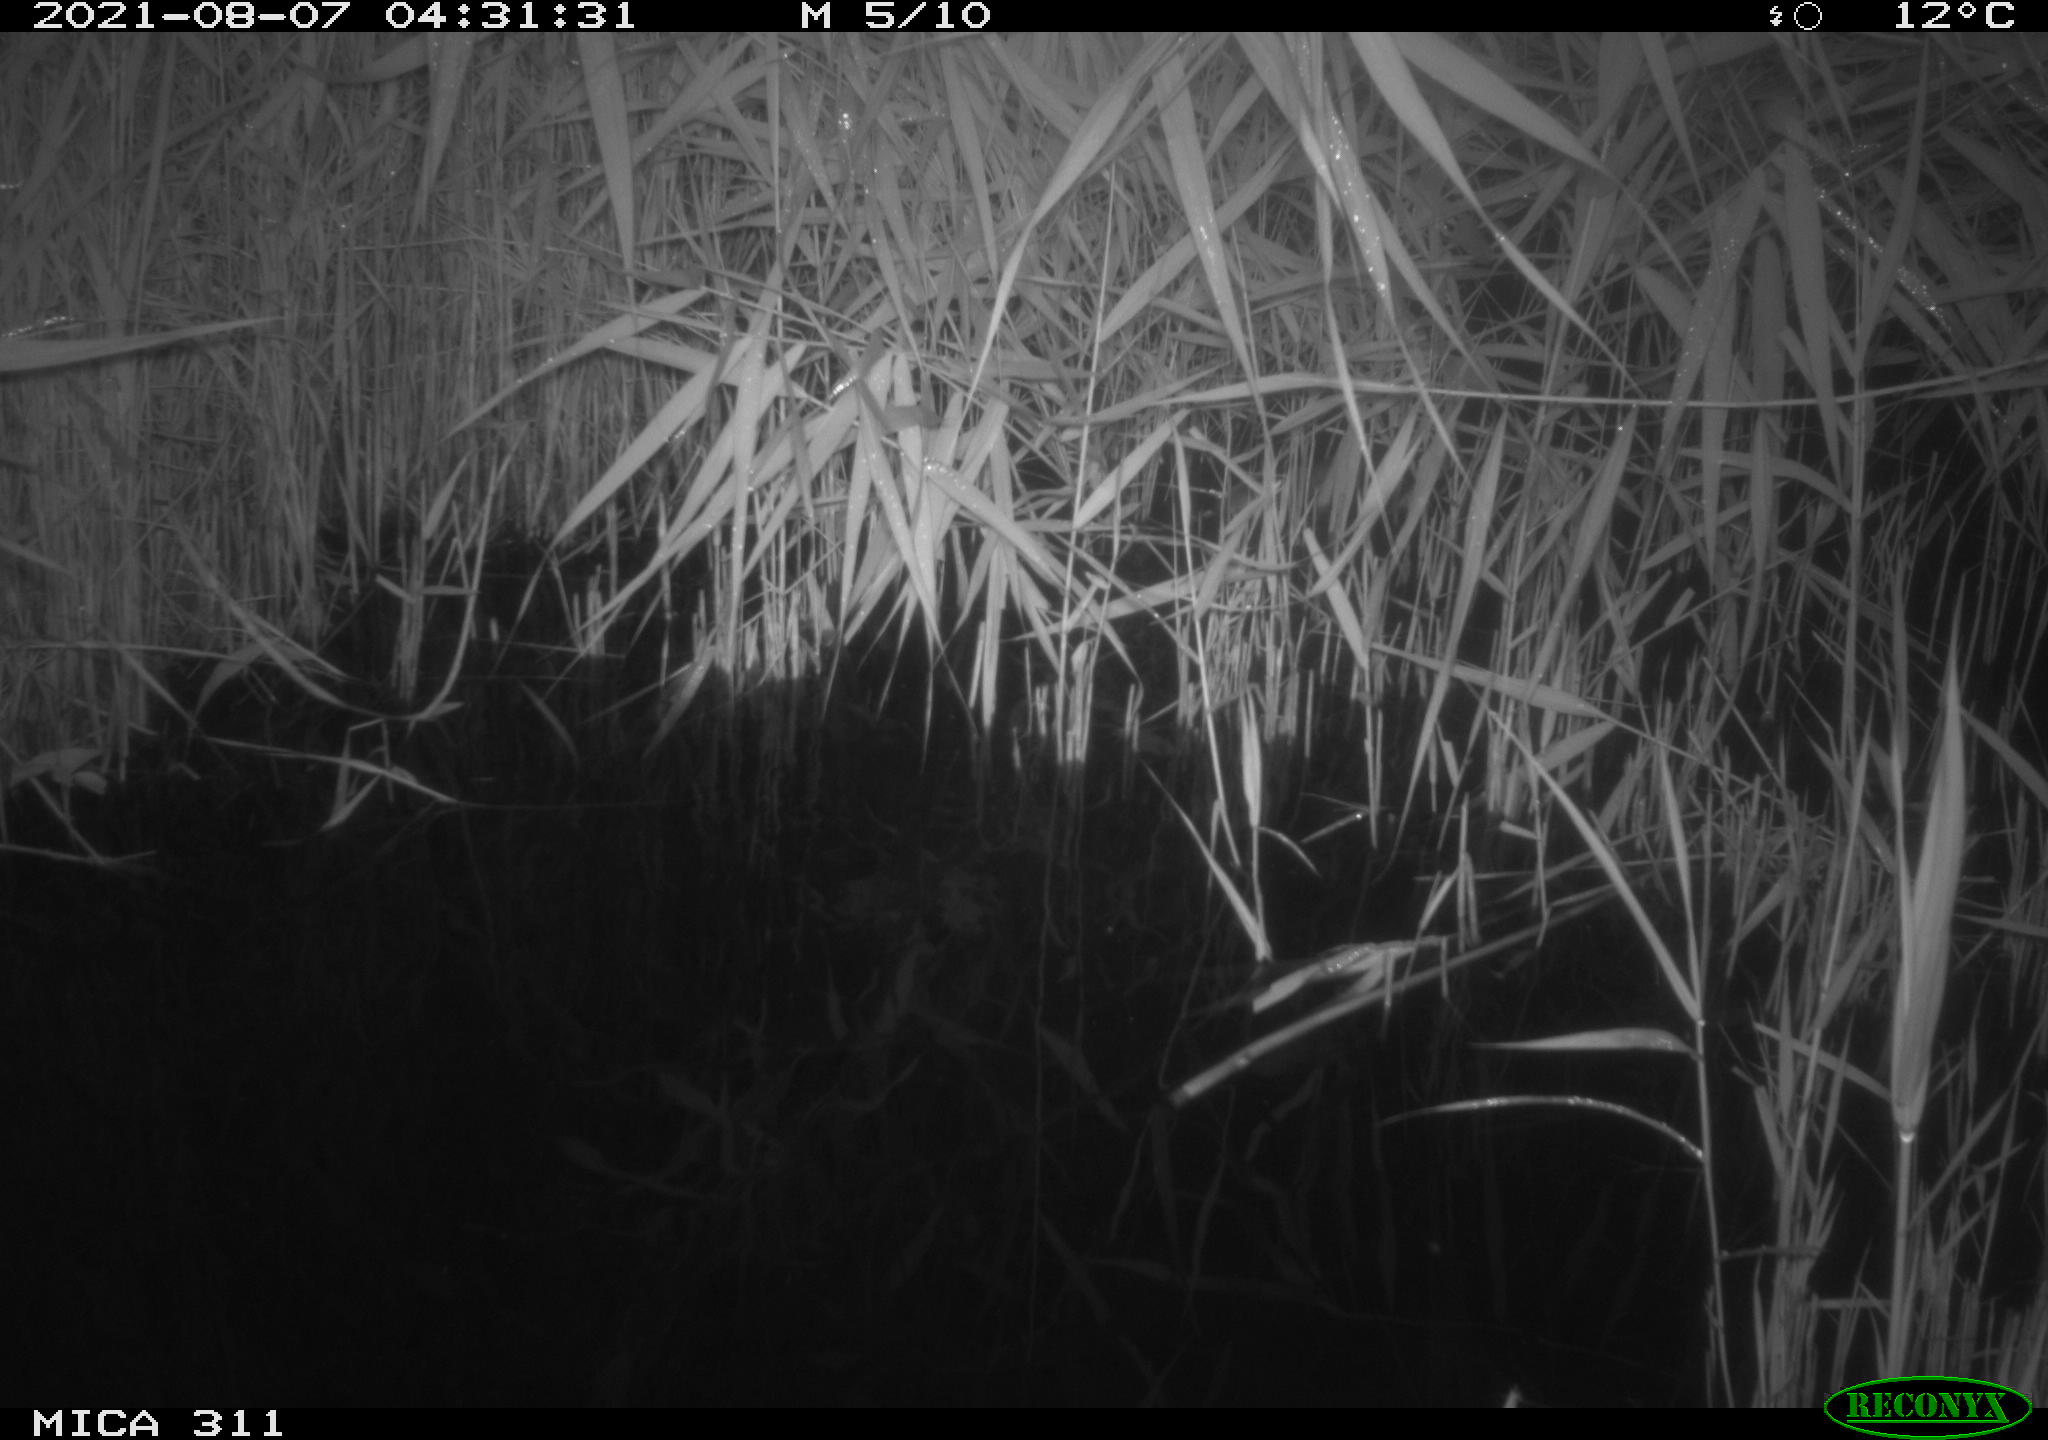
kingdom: Animalia
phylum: Chordata
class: Mammalia
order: Rodentia
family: Muridae
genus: Rattus
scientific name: Rattus norvegicus
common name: Brown rat
